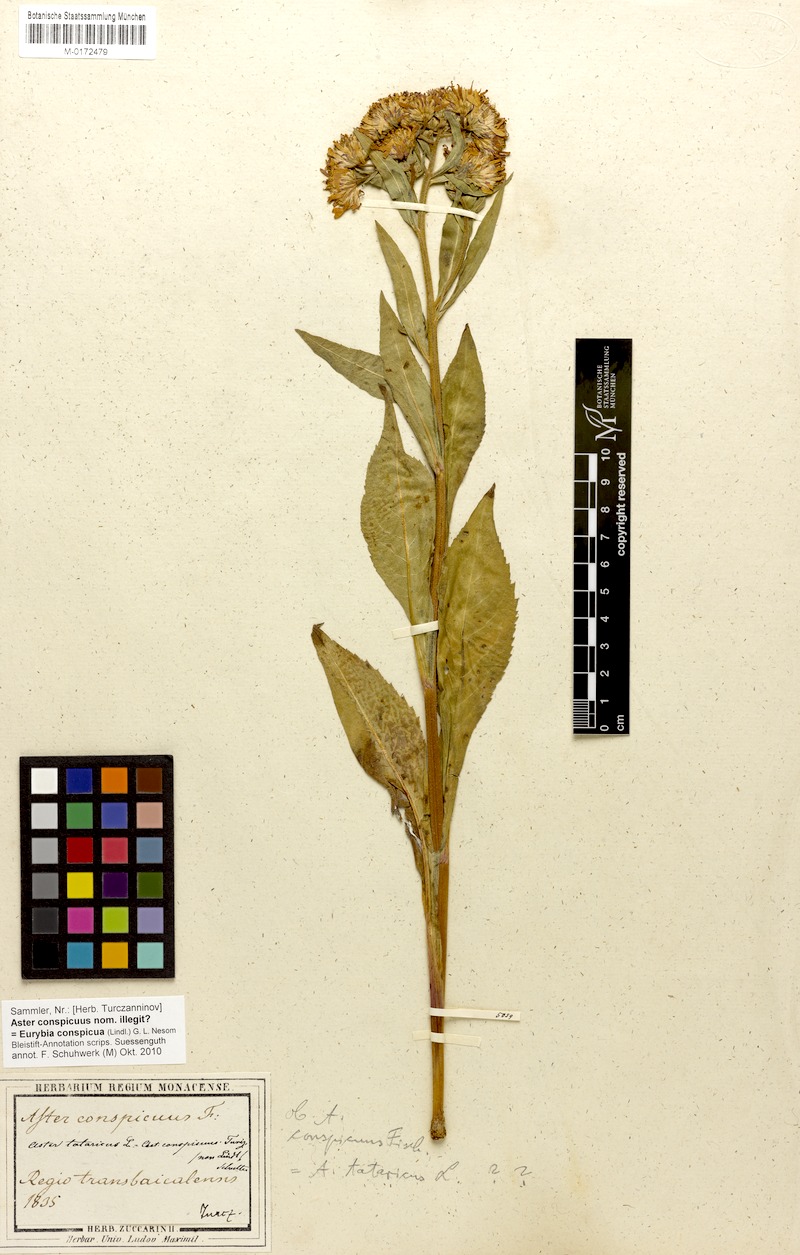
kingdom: Plantae
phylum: Tracheophyta
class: Magnoliopsida
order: Asterales
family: Asteraceae
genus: Aster
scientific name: Aster tataricus
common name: Tatarian aster
